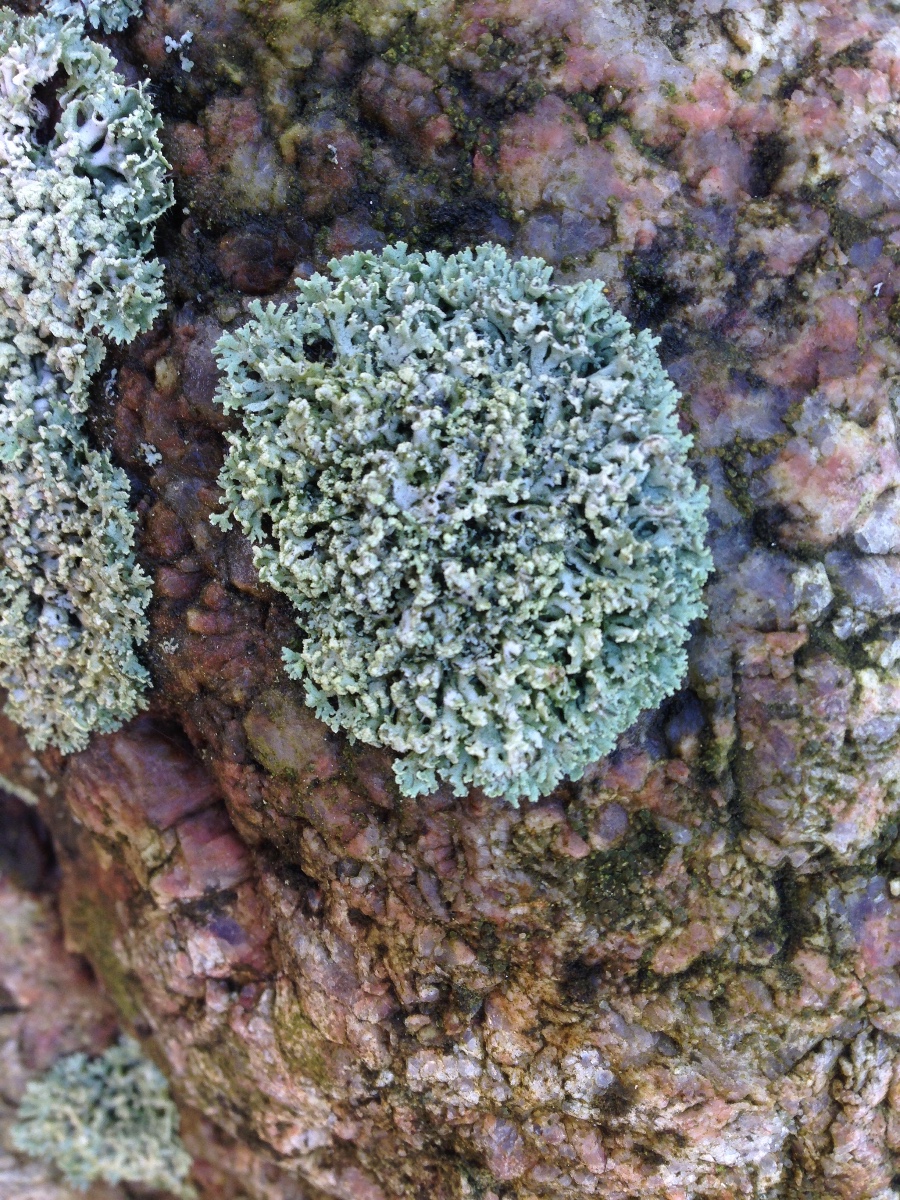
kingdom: Fungi
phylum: Ascomycota
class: Lecanoromycetes
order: Caliciales
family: Physciaceae
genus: Physcia
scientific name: Physcia tenella
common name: spæd rosetlav
